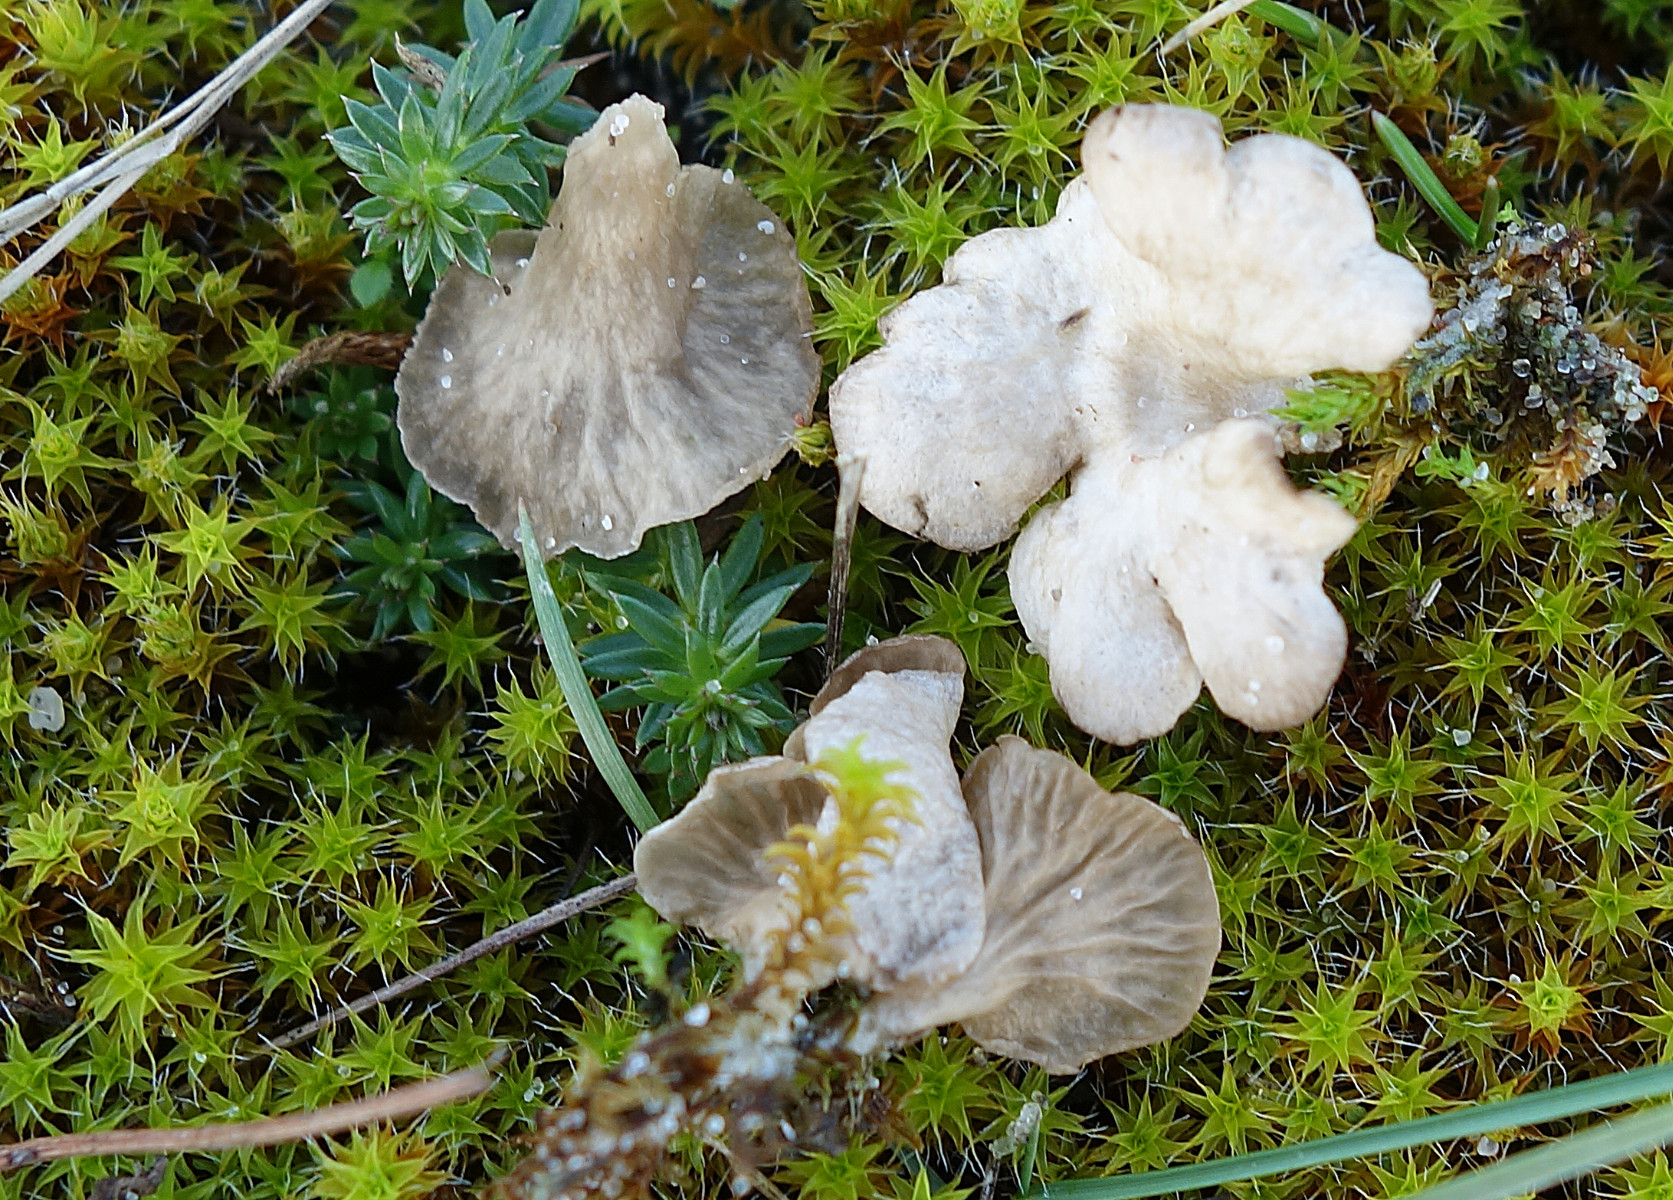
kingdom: Fungi
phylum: Basidiomycota
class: Agaricomycetes
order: Agaricales
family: Hygrophoraceae
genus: Arrhenia
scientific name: Arrhenia spathulata
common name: skæv fontænehat
